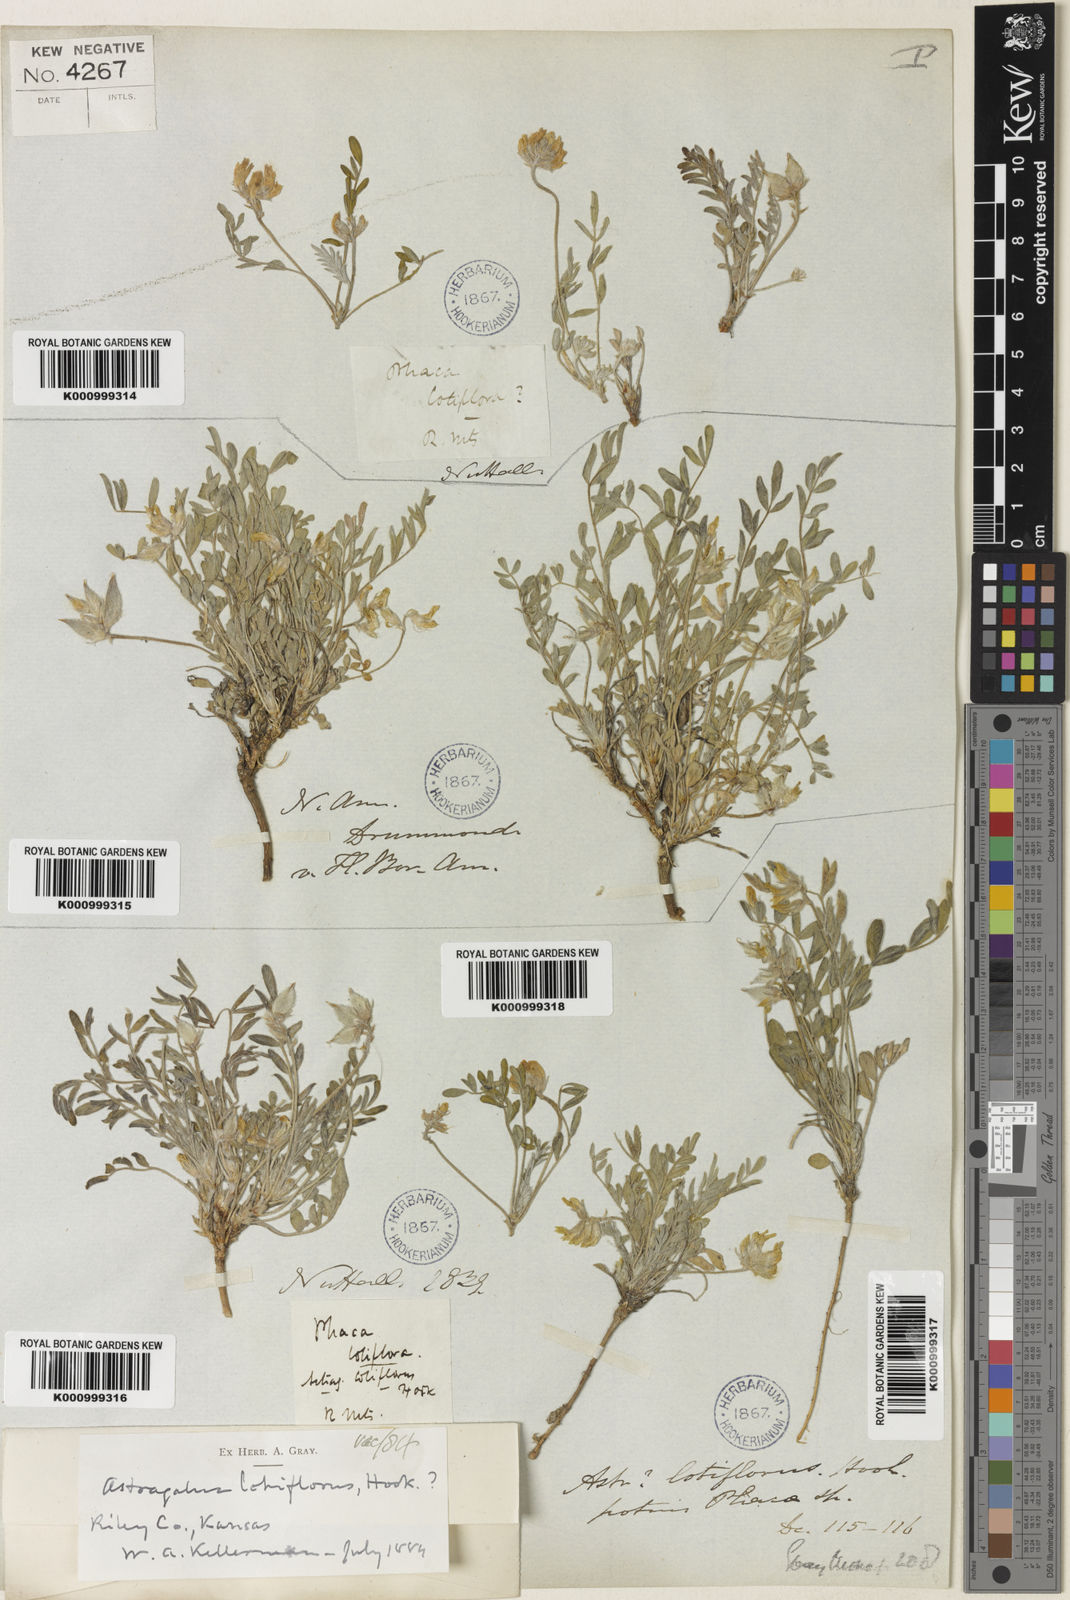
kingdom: Plantae
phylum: Tracheophyta
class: Magnoliopsida
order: Fabales
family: Fabaceae
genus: Astragalus
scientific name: Astragalus lotiflorus
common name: Lotus milk-vetch
